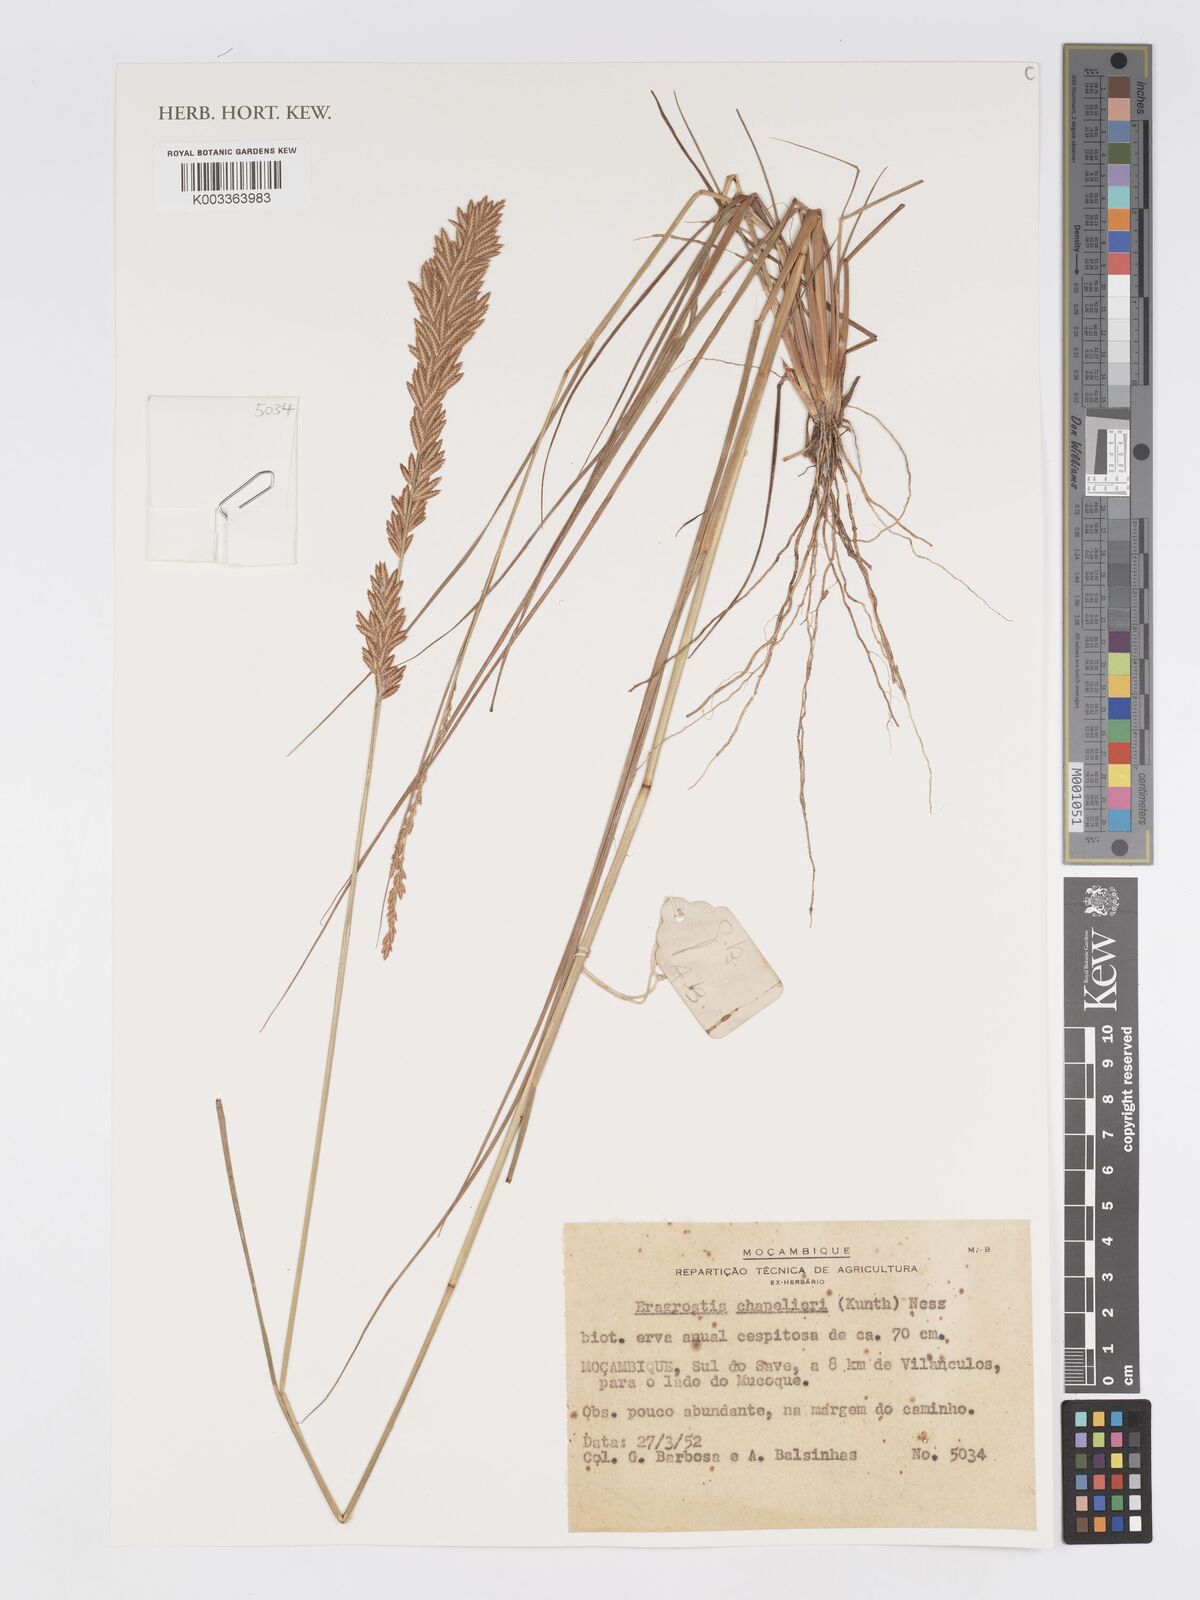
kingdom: Plantae
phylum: Tracheophyta
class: Liliopsida
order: Poales
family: Poaceae
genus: Eragrostis
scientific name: Eragrostis chapelieri
